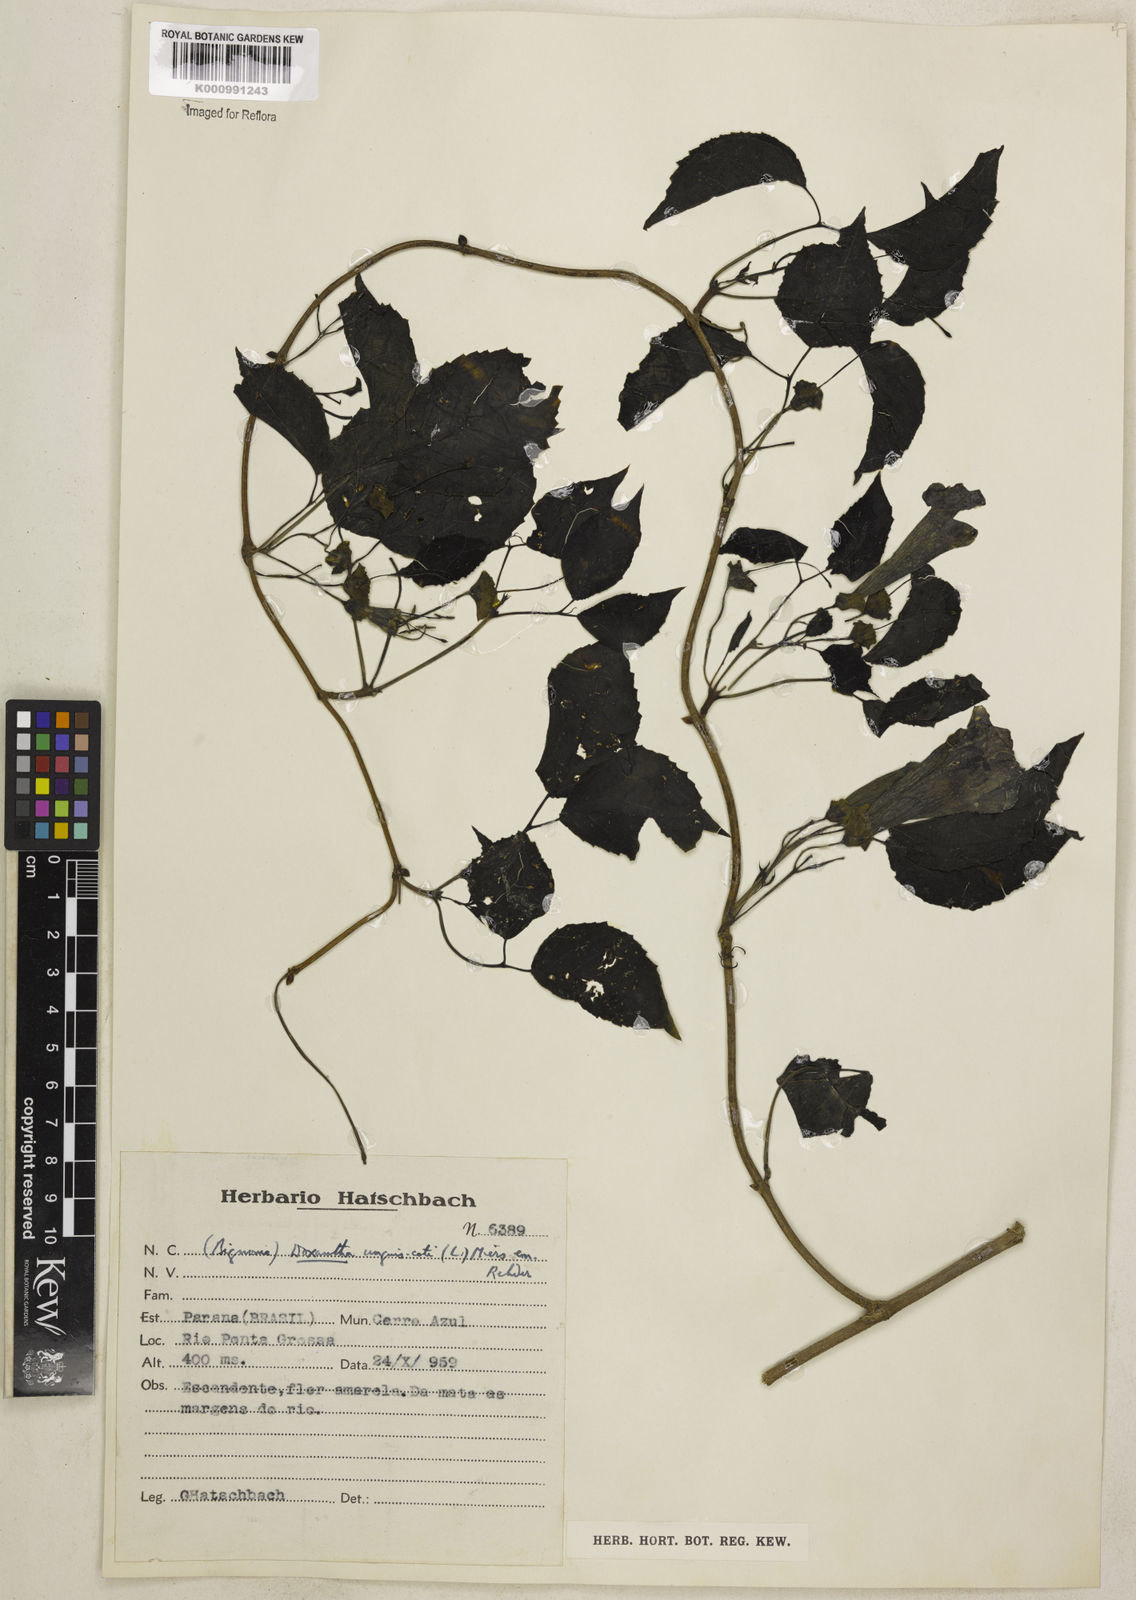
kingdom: Plantae
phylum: Tracheophyta
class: Magnoliopsida
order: Lamiales
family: Bignoniaceae
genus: Dolichandra
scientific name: Dolichandra unguis-cati
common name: Catclaw vine
